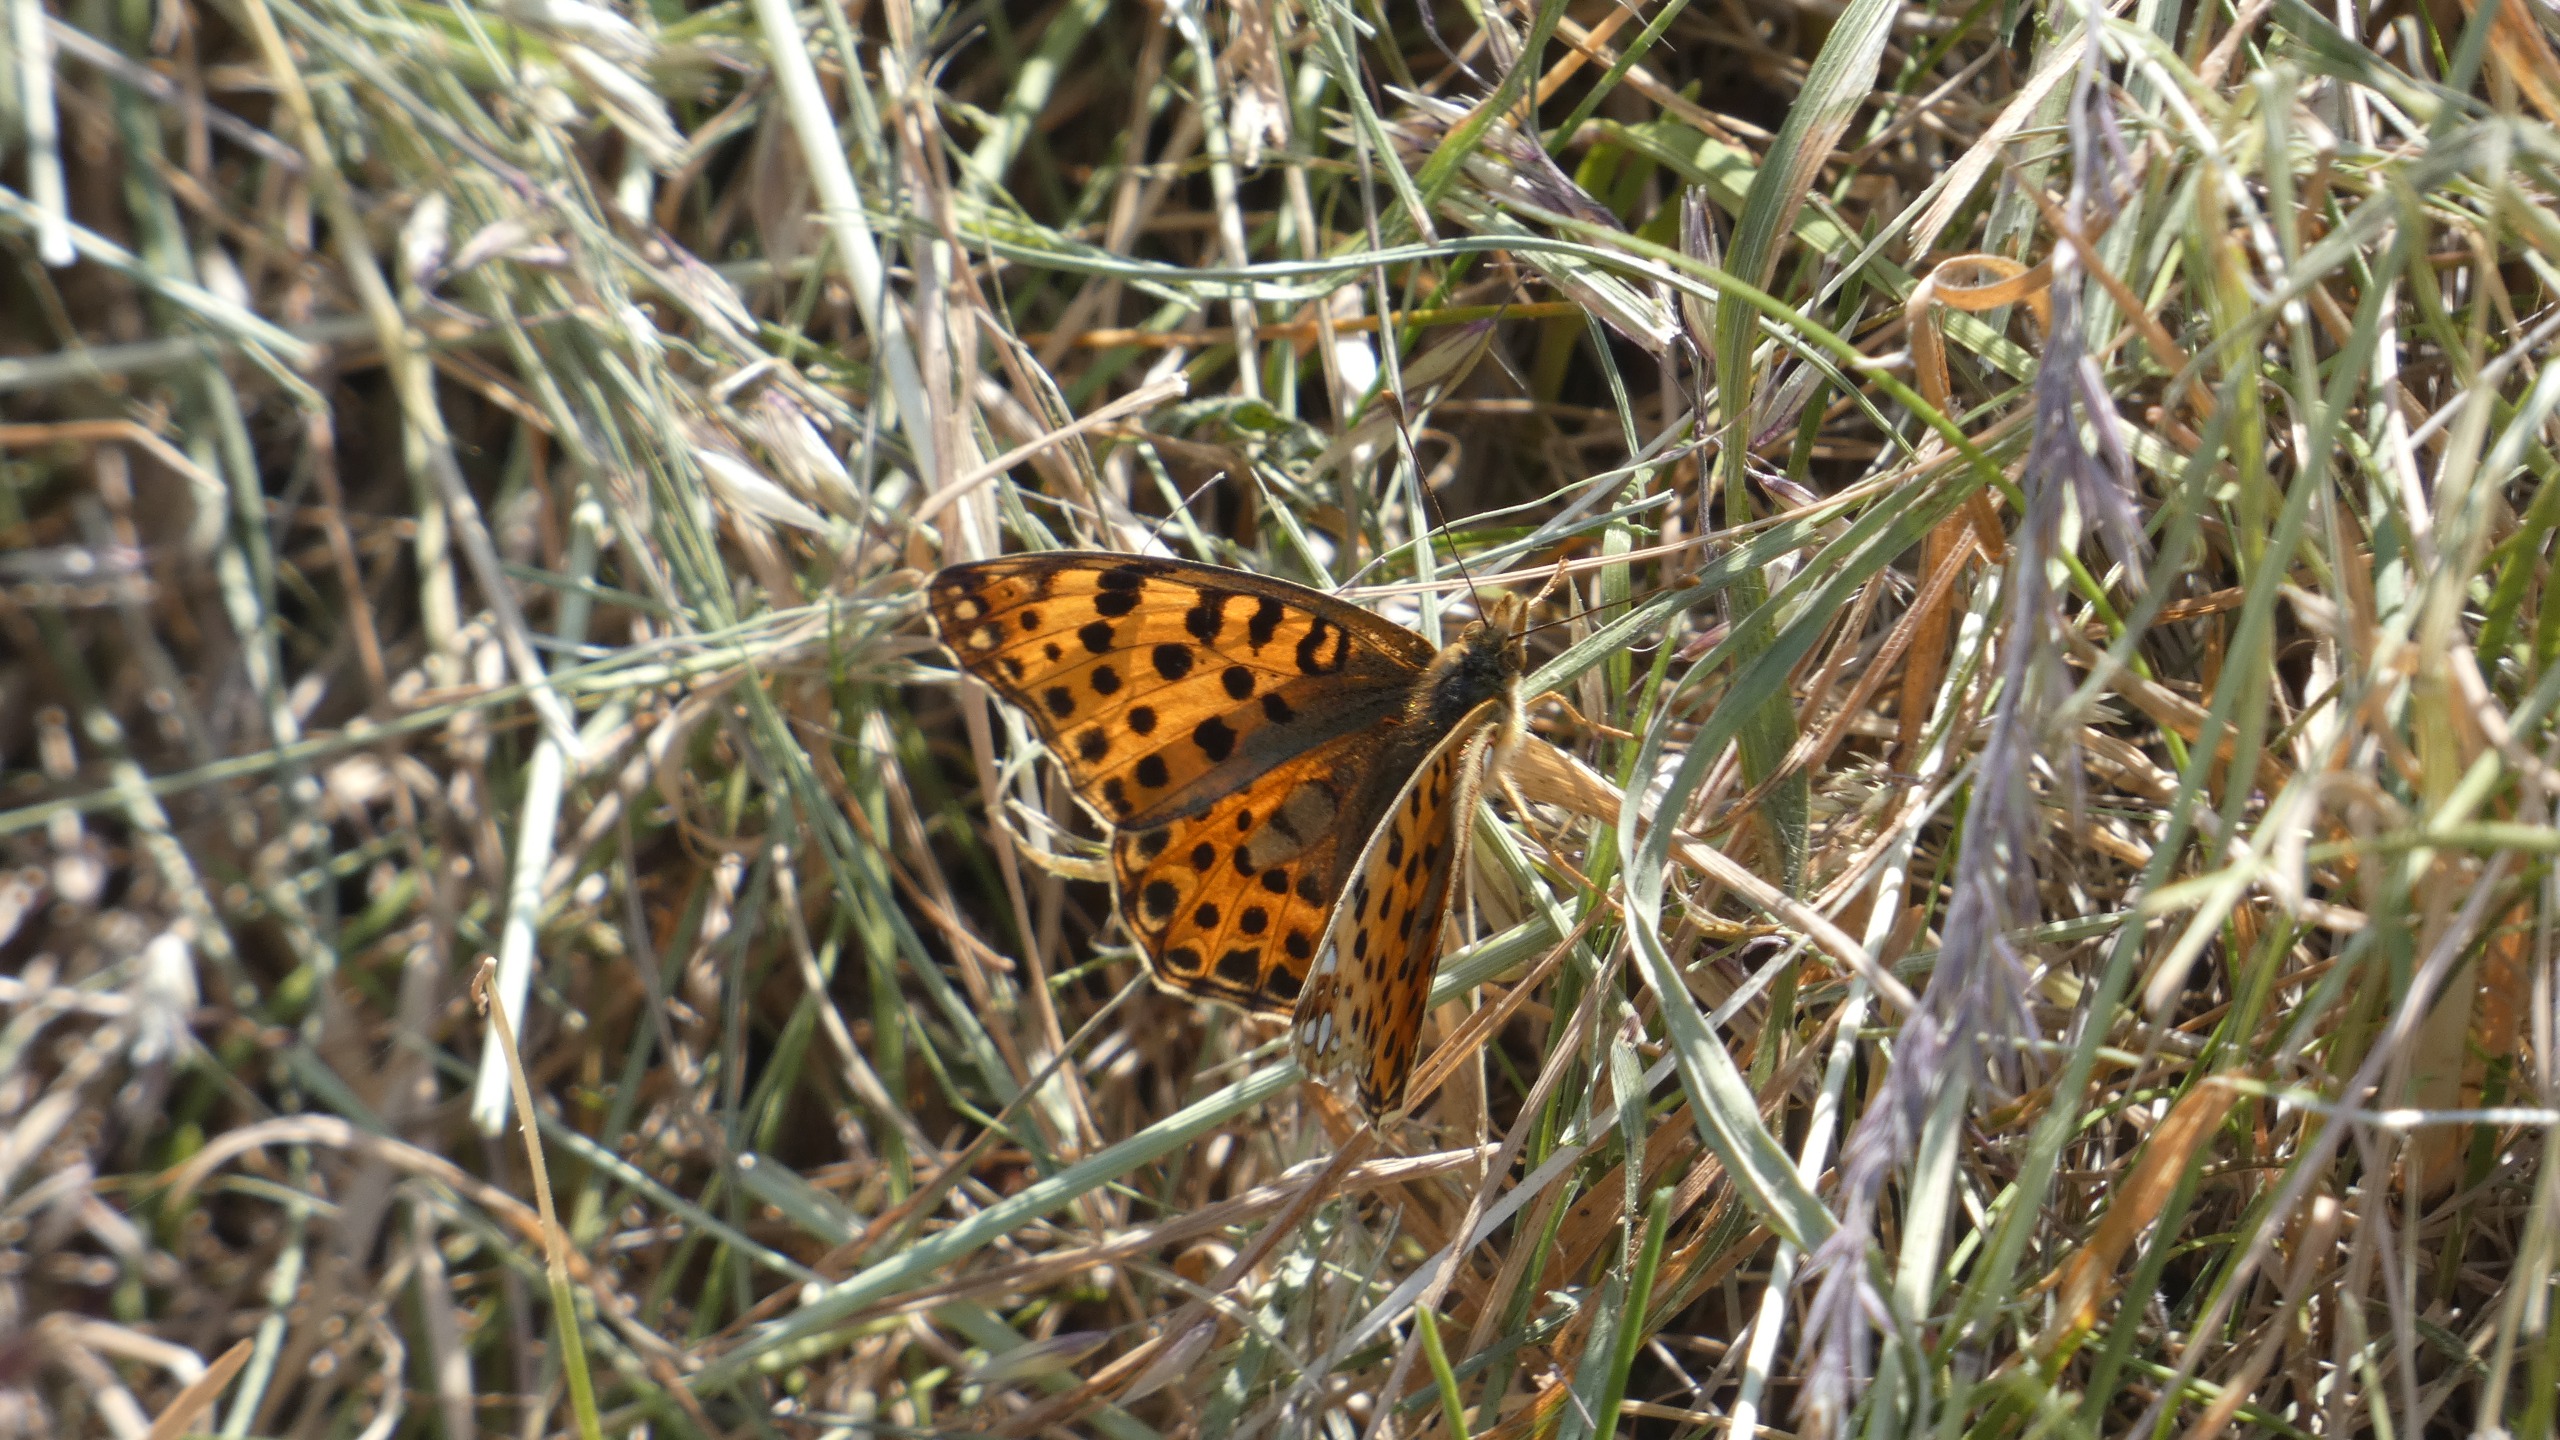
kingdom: Animalia
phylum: Arthropoda
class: Insecta
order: Lepidoptera
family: Nymphalidae
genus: Issoria
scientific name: Issoria lathonia
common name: Storplettet perlemorsommerfugl
